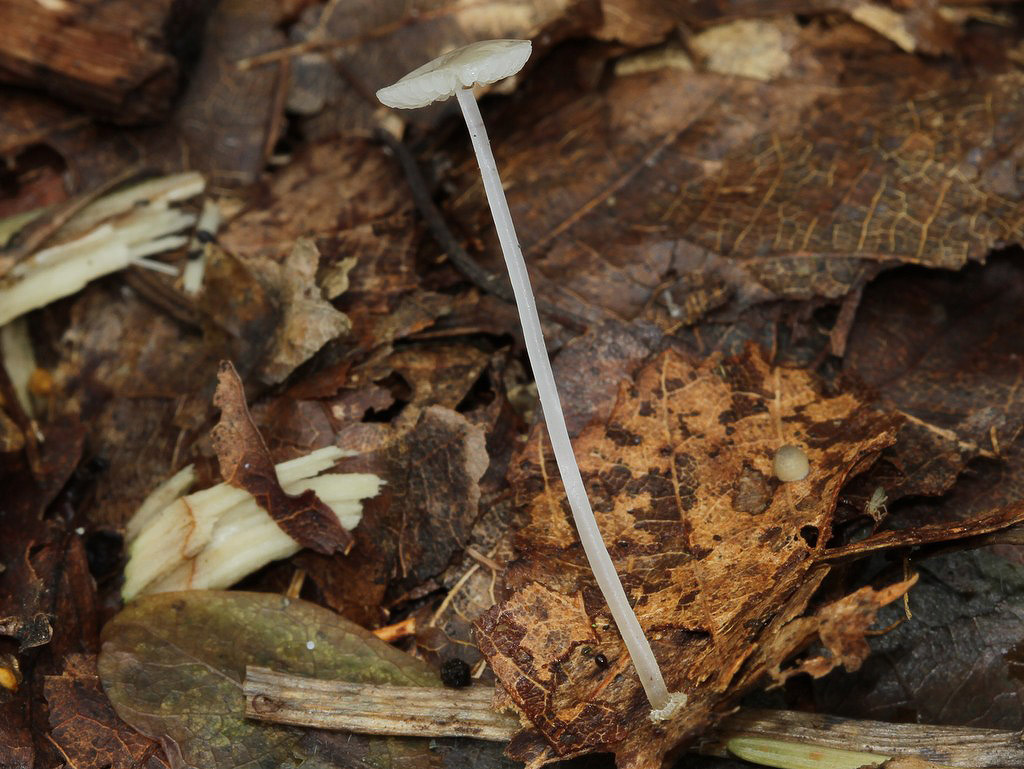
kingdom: Fungi
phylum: Basidiomycota
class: Agaricomycetes
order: Agaricales
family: Mycenaceae
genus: Mycena
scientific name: Mycena stylobates
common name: fureskivet huesvamp
